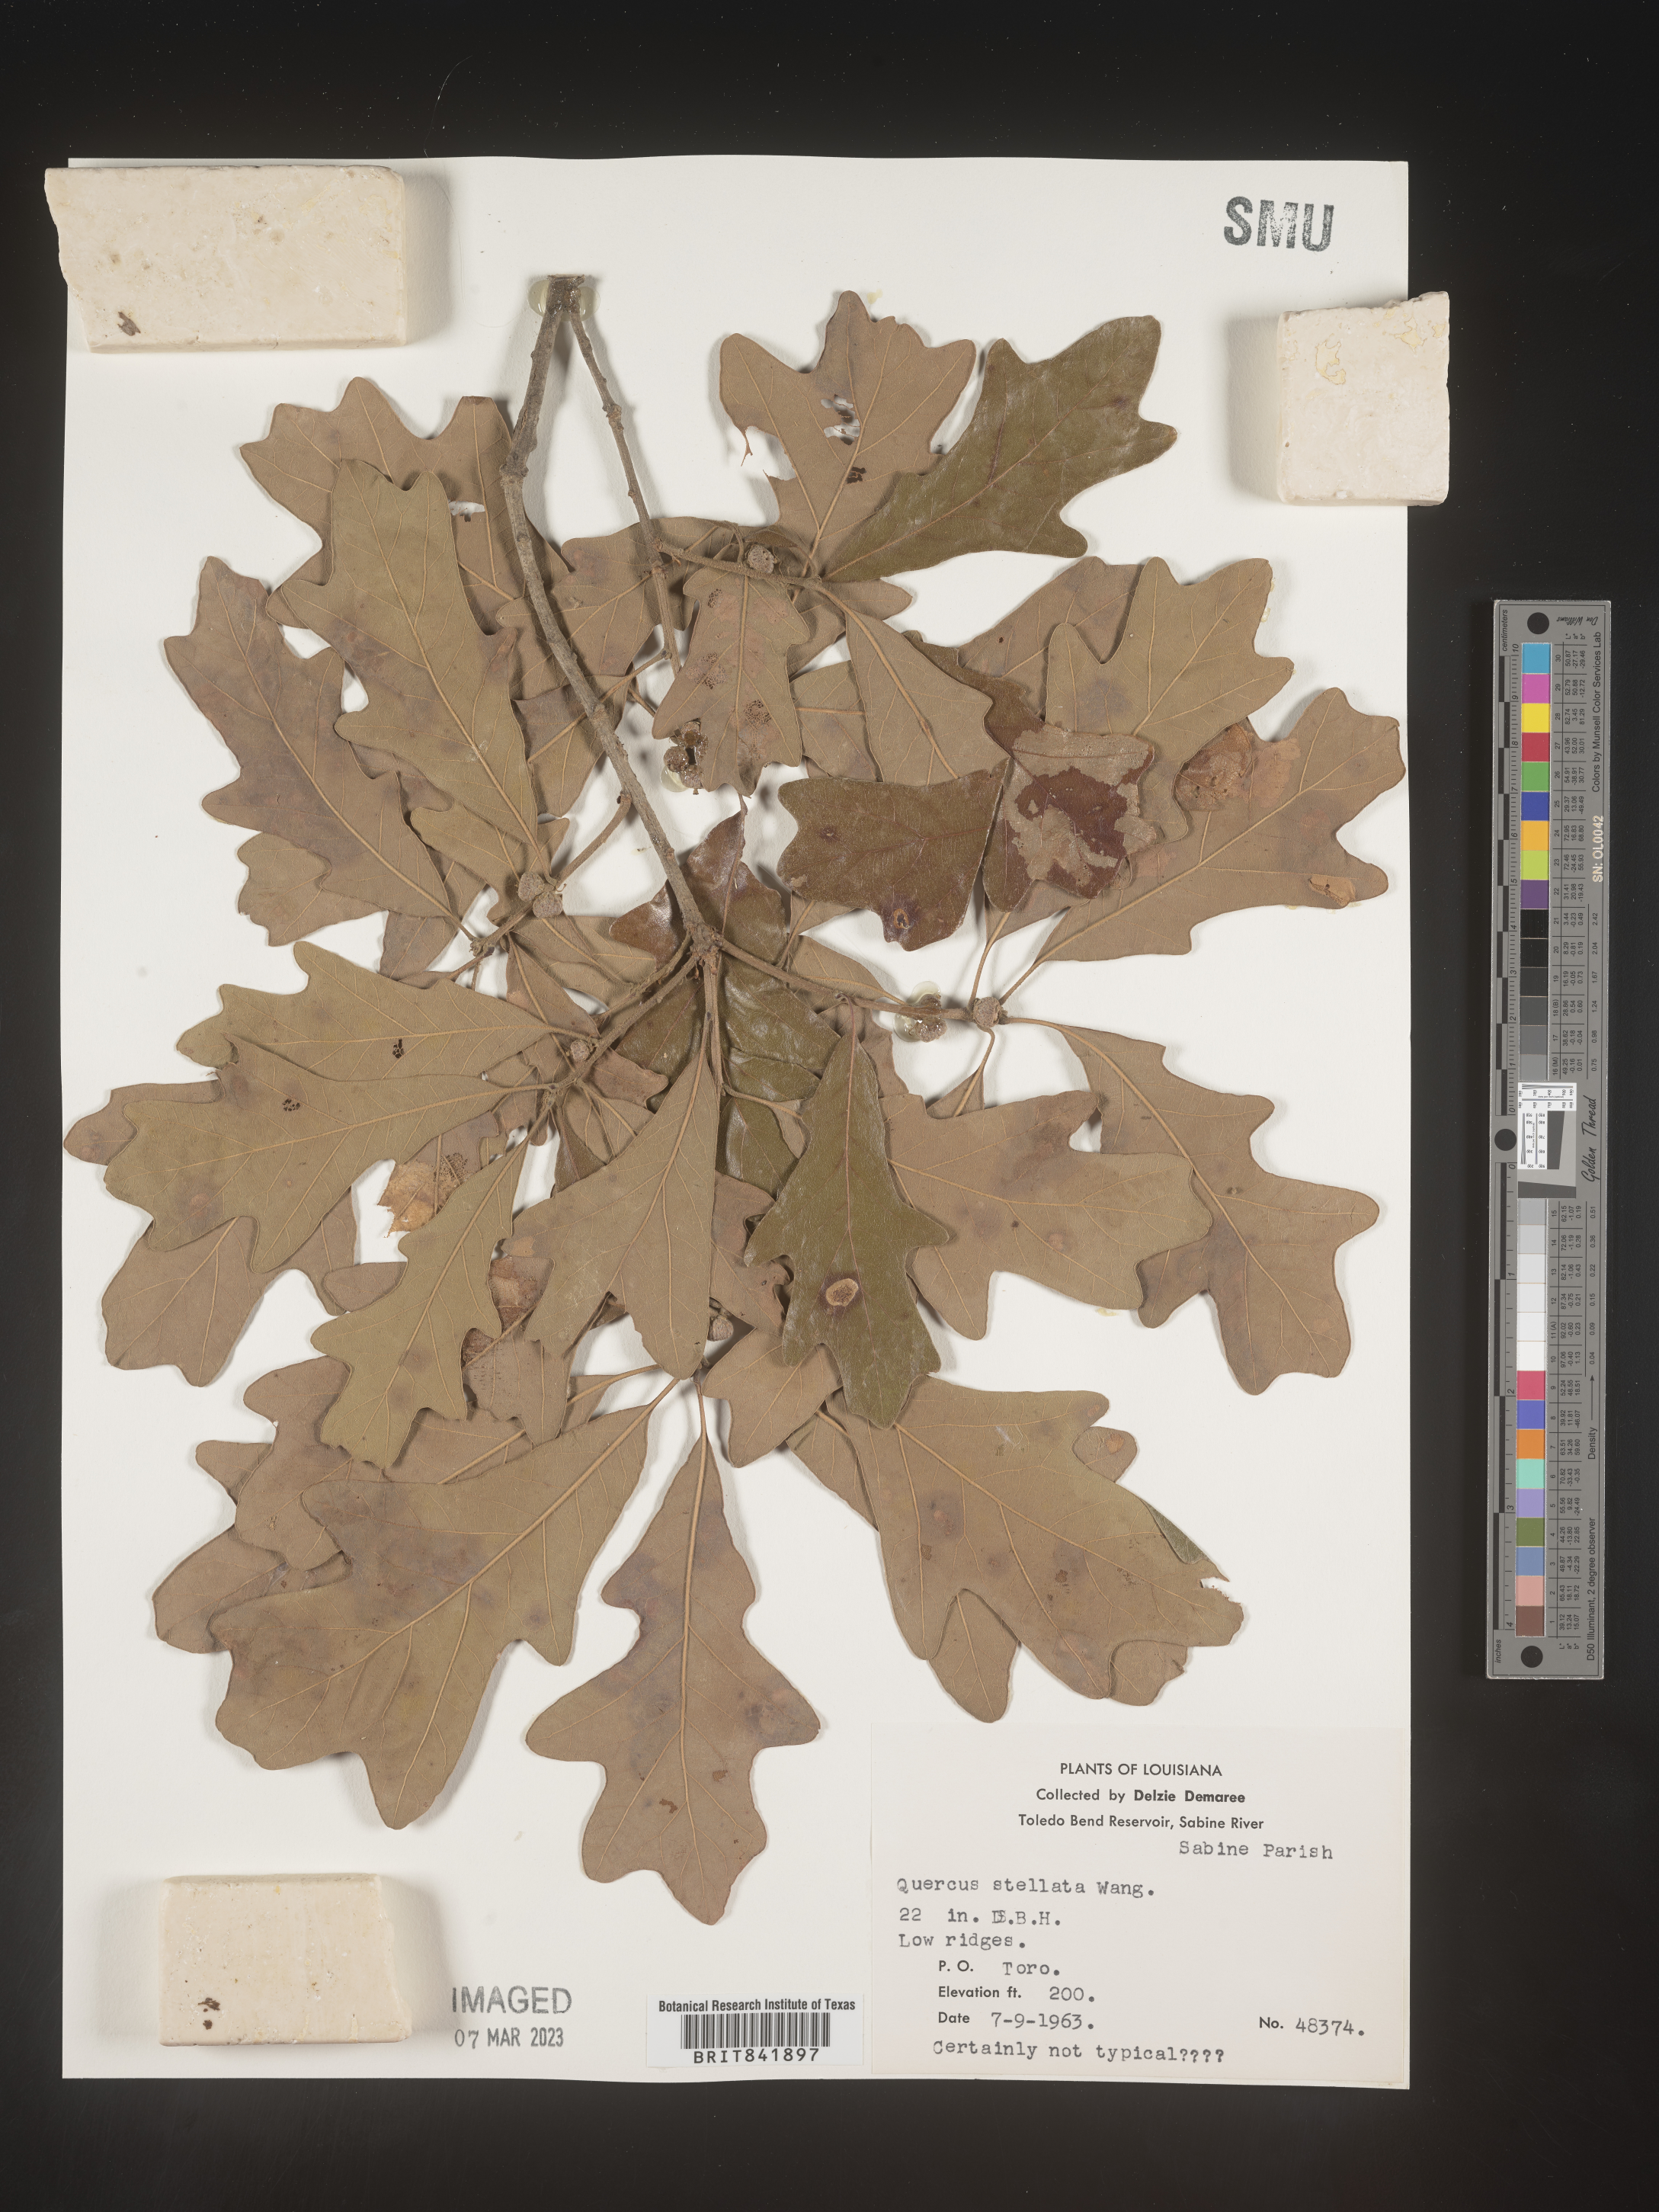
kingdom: Plantae
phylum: Tracheophyta
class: Magnoliopsida
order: Fagales
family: Fagaceae
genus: Quercus
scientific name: Quercus stellata
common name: Post oak
